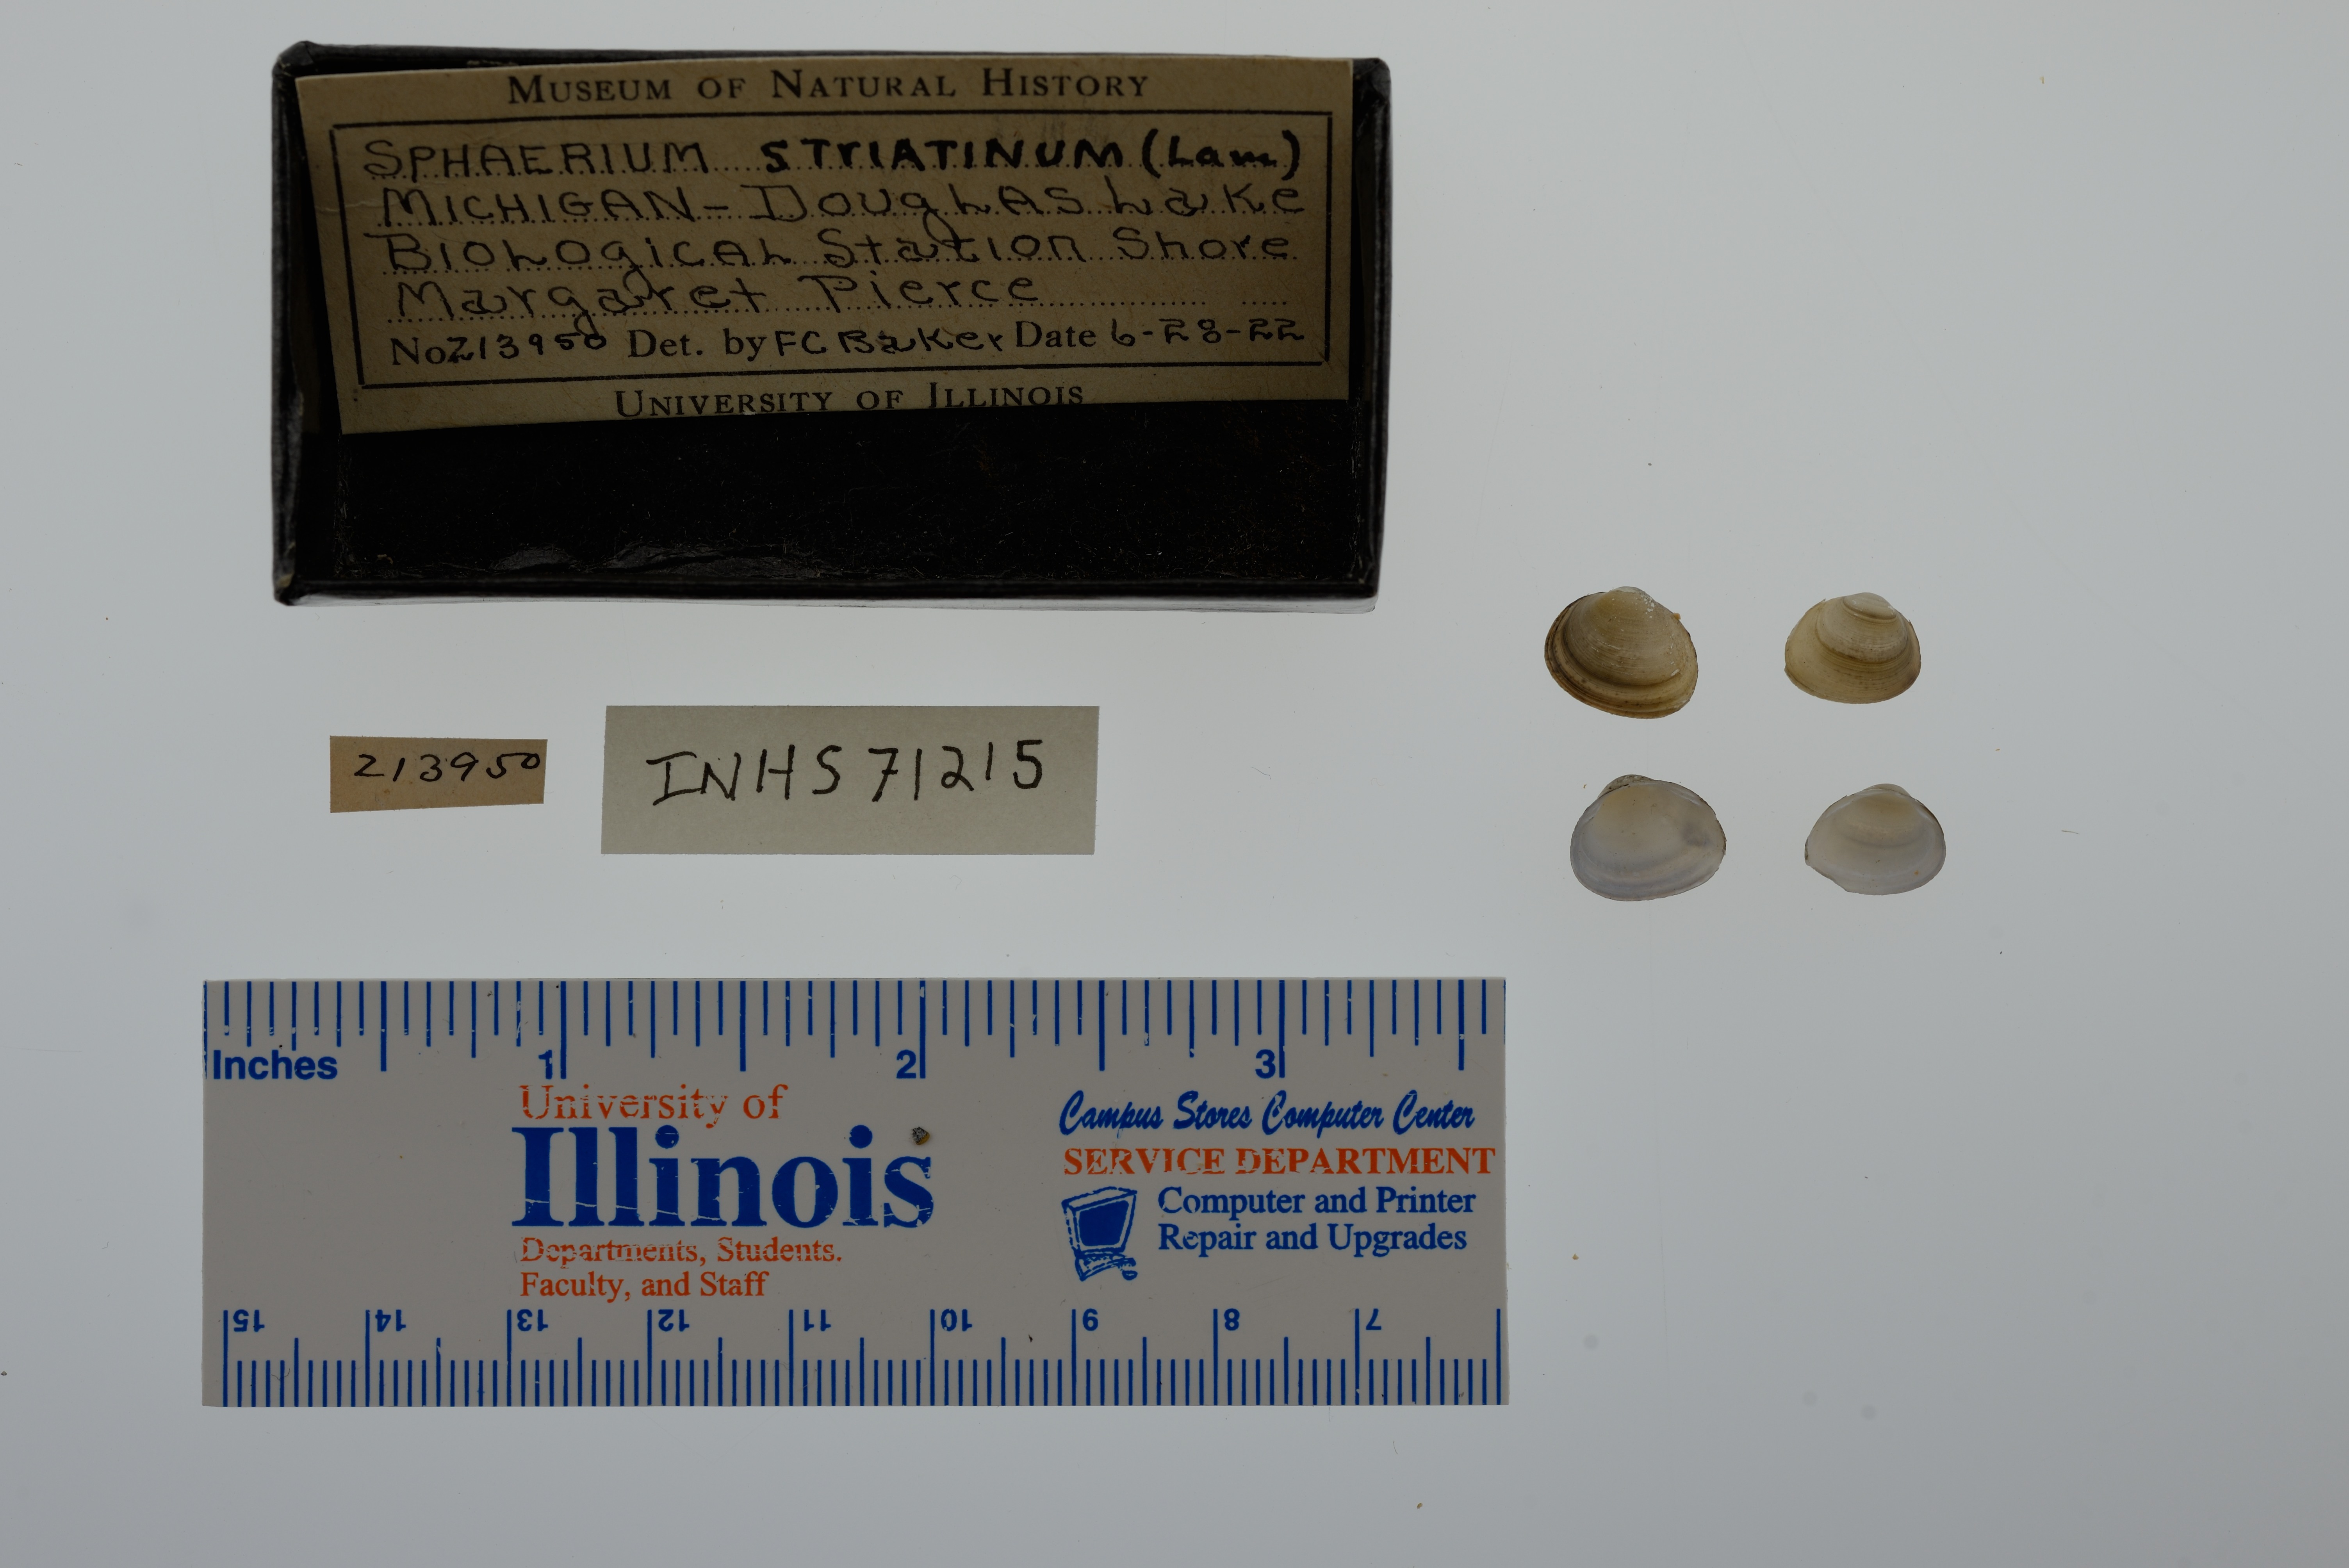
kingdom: Animalia
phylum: Mollusca
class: Bivalvia
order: Sphaeriida
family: Sphaeriidae
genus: Sphaerium
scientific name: Sphaerium striatinum
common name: Striated fingernailclam
